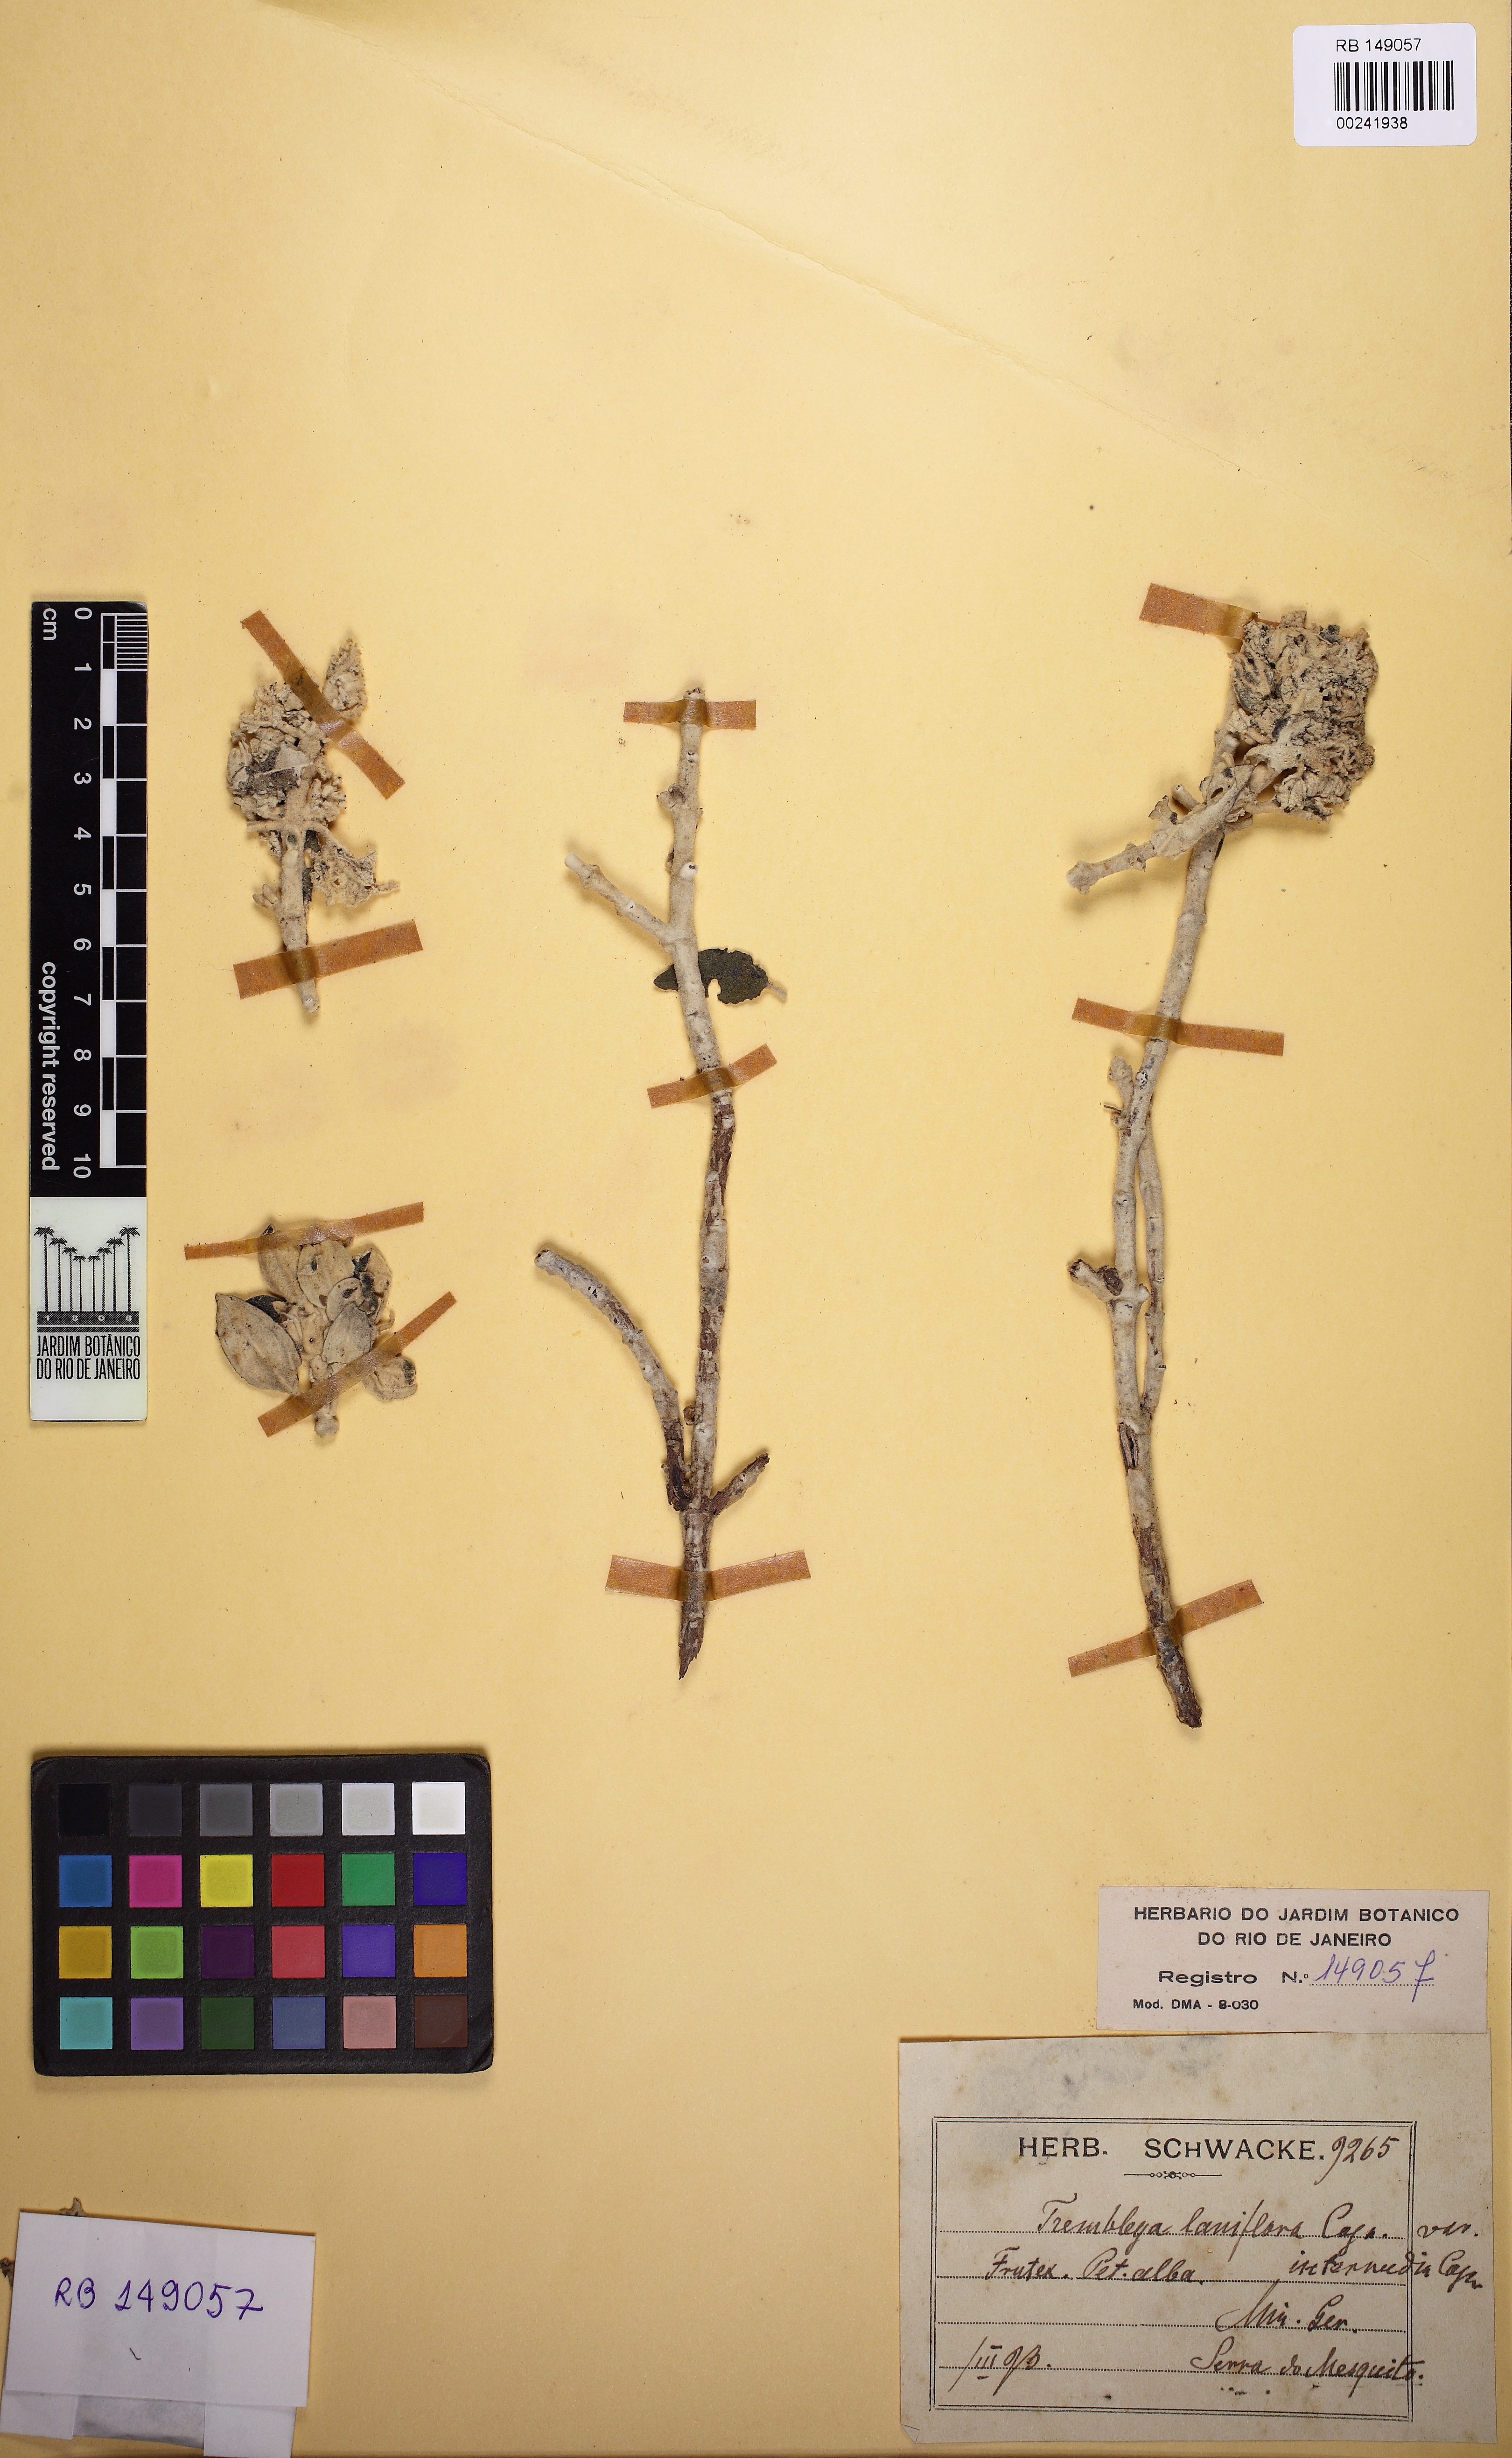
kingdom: Plantae
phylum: Tracheophyta
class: Magnoliopsida
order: Myrtales
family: Melastomataceae
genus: Microlicia
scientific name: Microlicia laniflora
